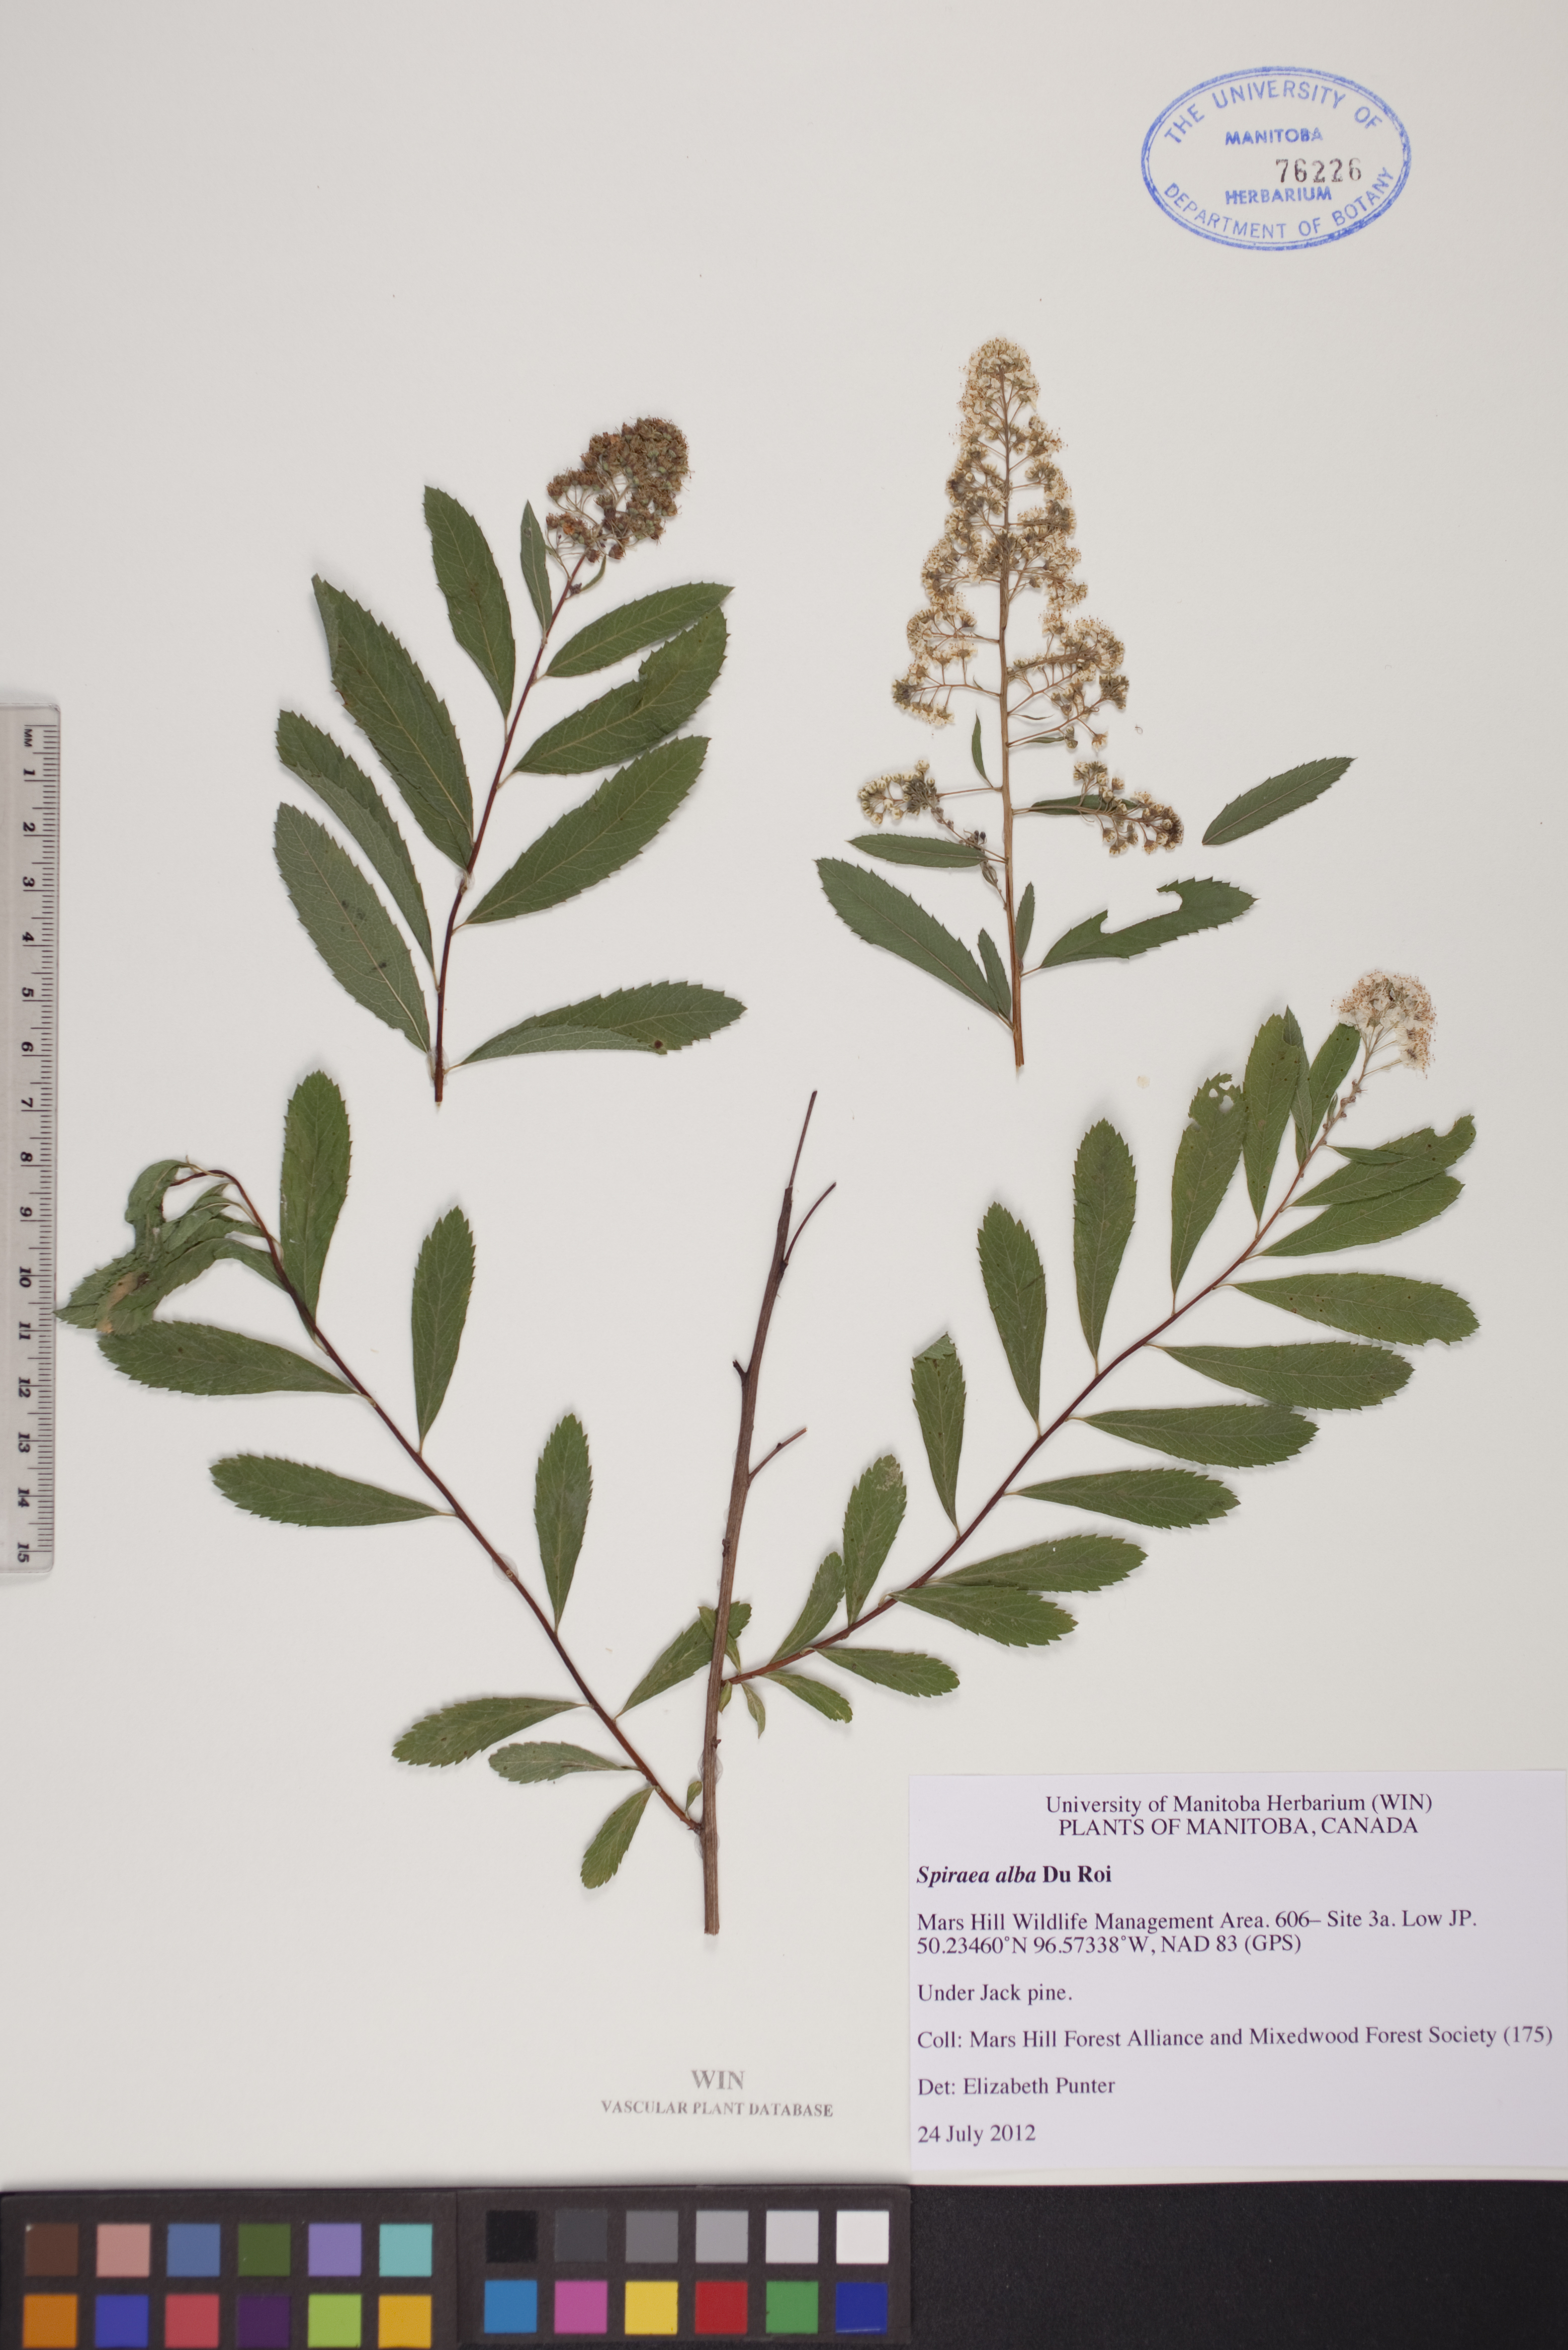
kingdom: Plantae
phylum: Tracheophyta
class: Magnoliopsida
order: Rosales
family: Rosaceae
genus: Spiraea
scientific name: Spiraea alba
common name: Pale bridewort
